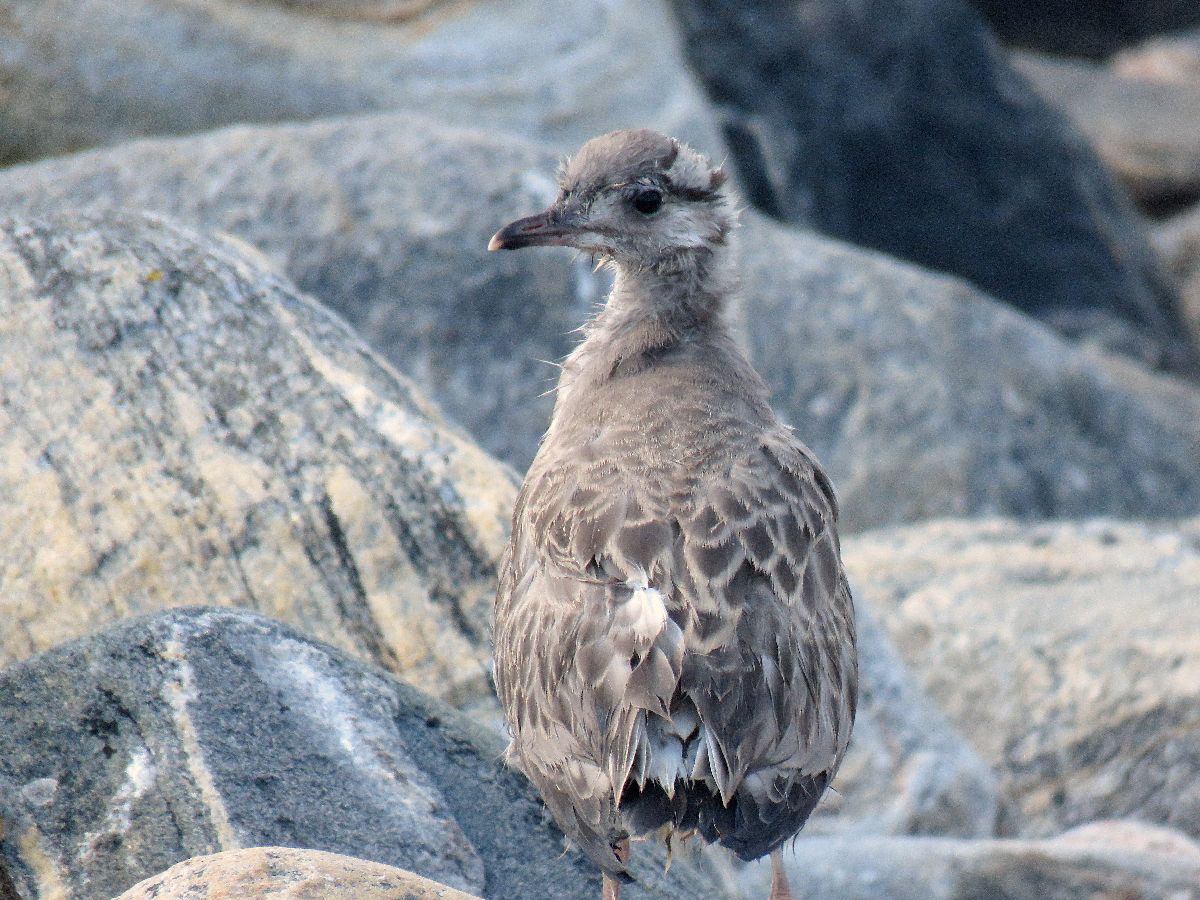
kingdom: Animalia
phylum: Chordata
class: Aves
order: Charadriiformes
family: Laridae
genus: Larus
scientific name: Larus canus
